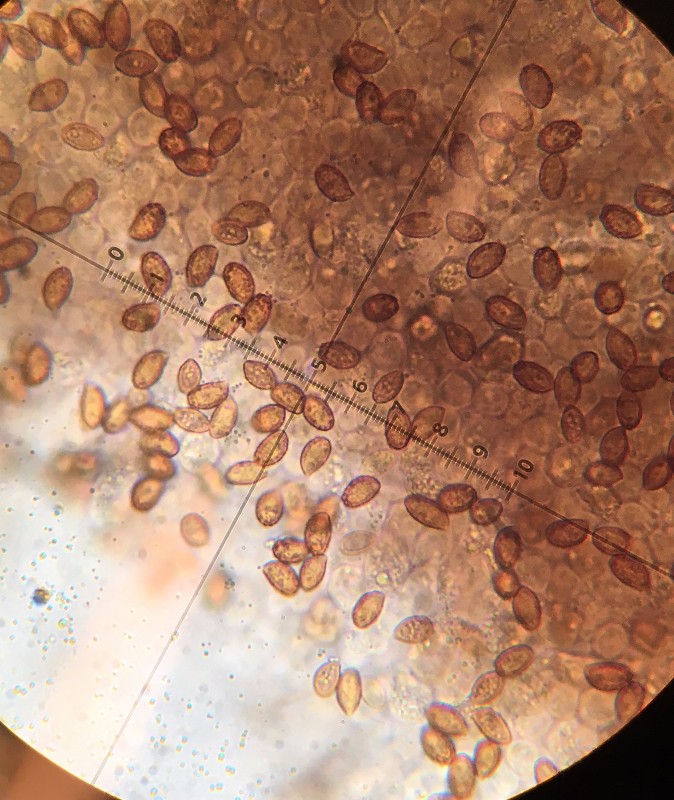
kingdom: Fungi
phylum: Basidiomycota
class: Agaricomycetes
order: Agaricales
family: Cortinariaceae
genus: Cortinarius
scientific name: Cortinarius
